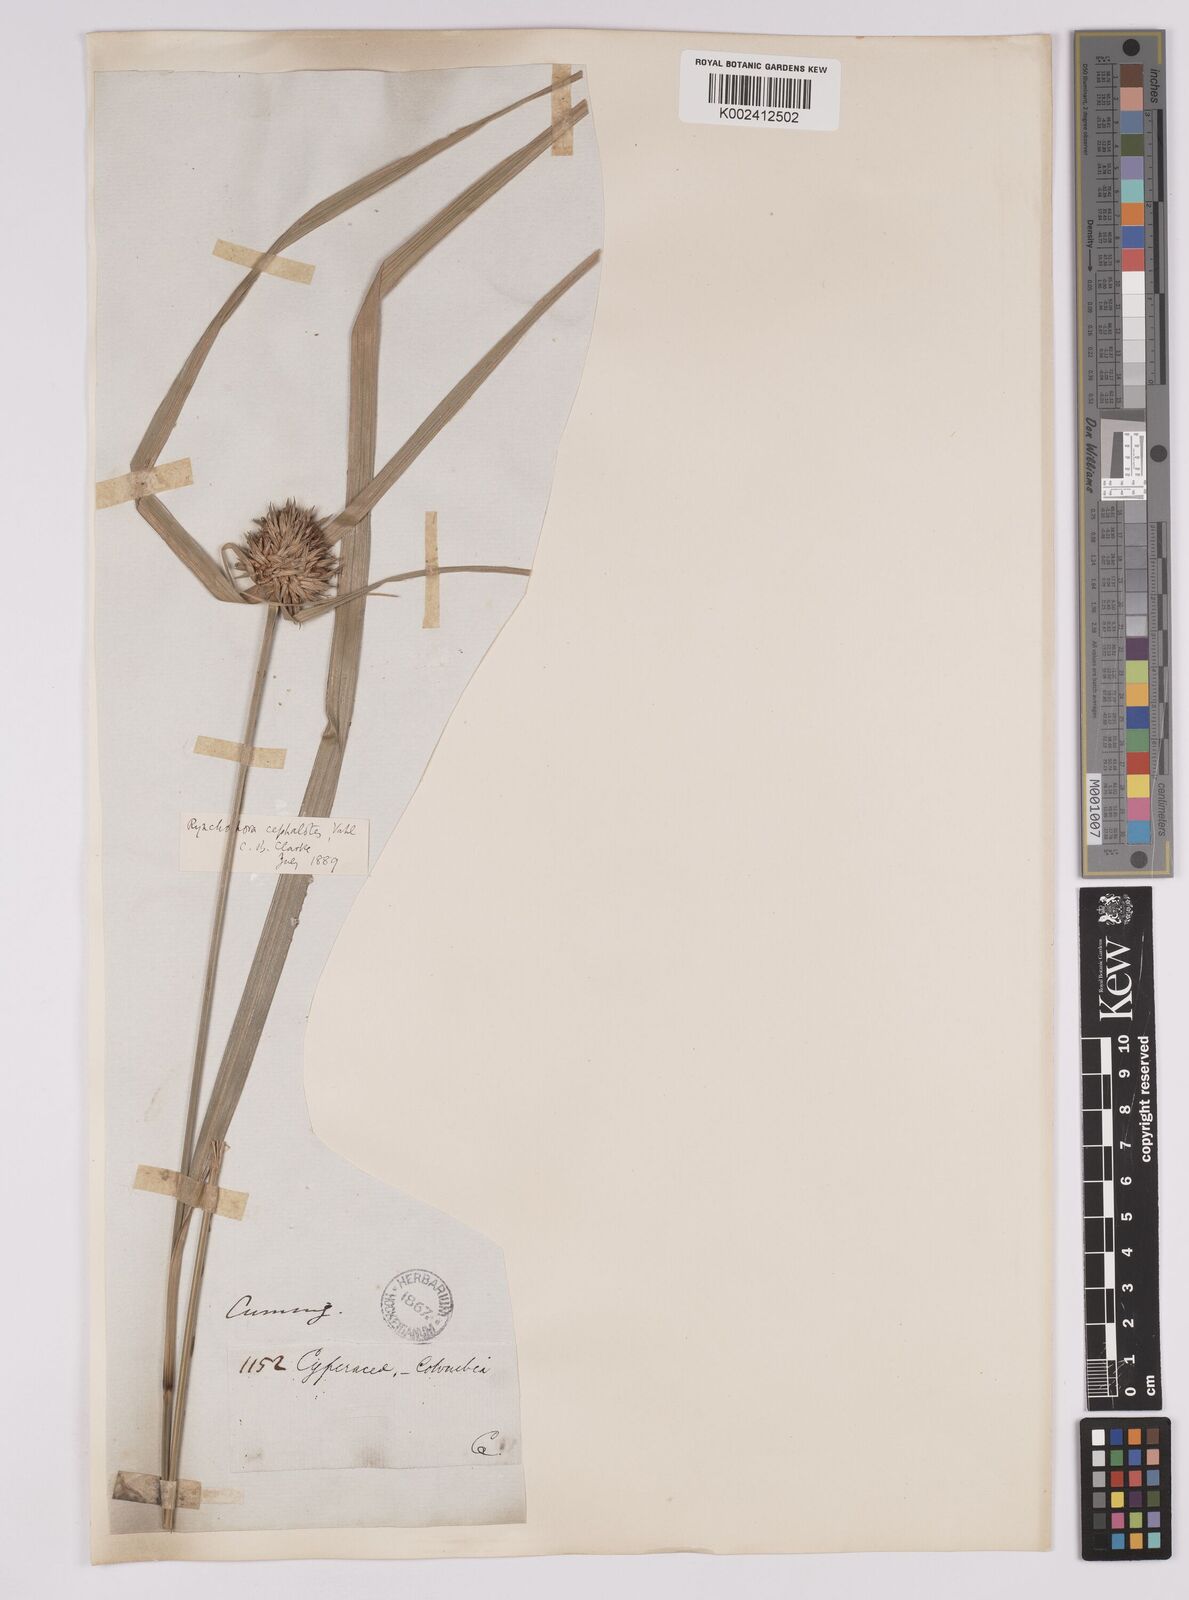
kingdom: Plantae
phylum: Tracheophyta
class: Liliopsida
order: Poales
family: Cyperaceae
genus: Rhynchospora
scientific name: Rhynchospora cephalotes
